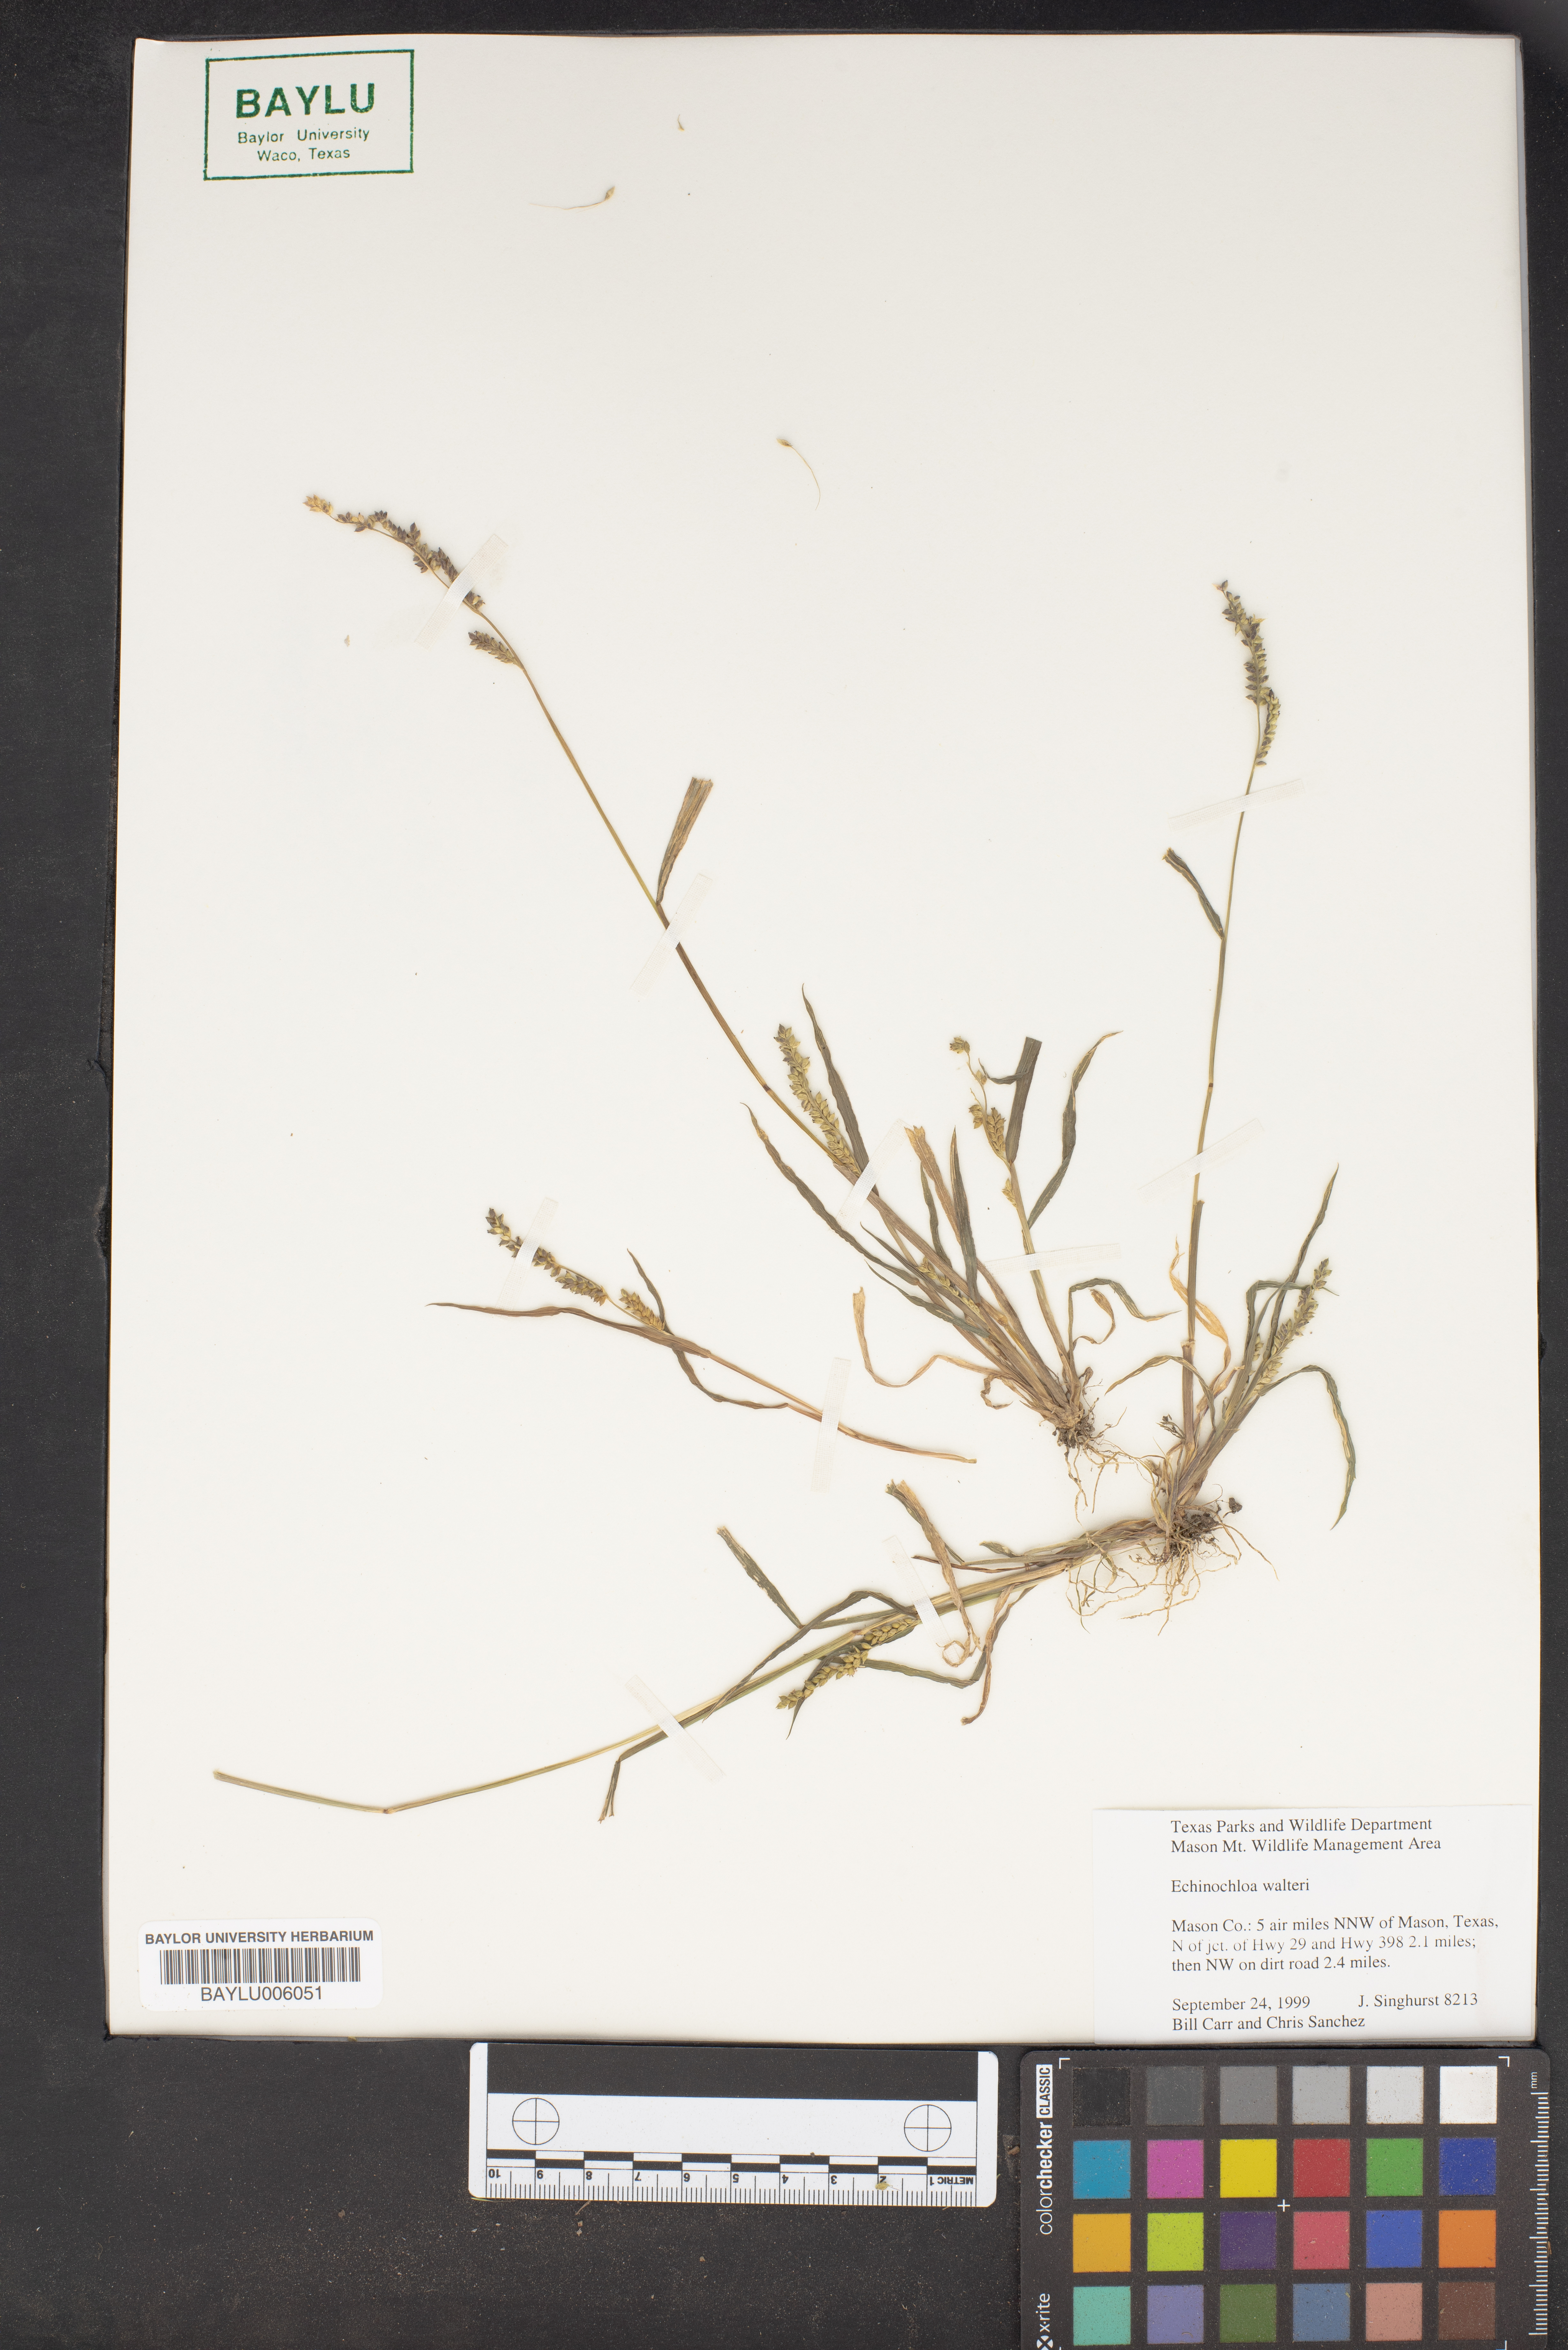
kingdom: Plantae
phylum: Tracheophyta
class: Liliopsida
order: Poales
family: Poaceae
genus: Echinochloa
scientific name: Echinochloa walteri
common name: Coast barnyard grass
